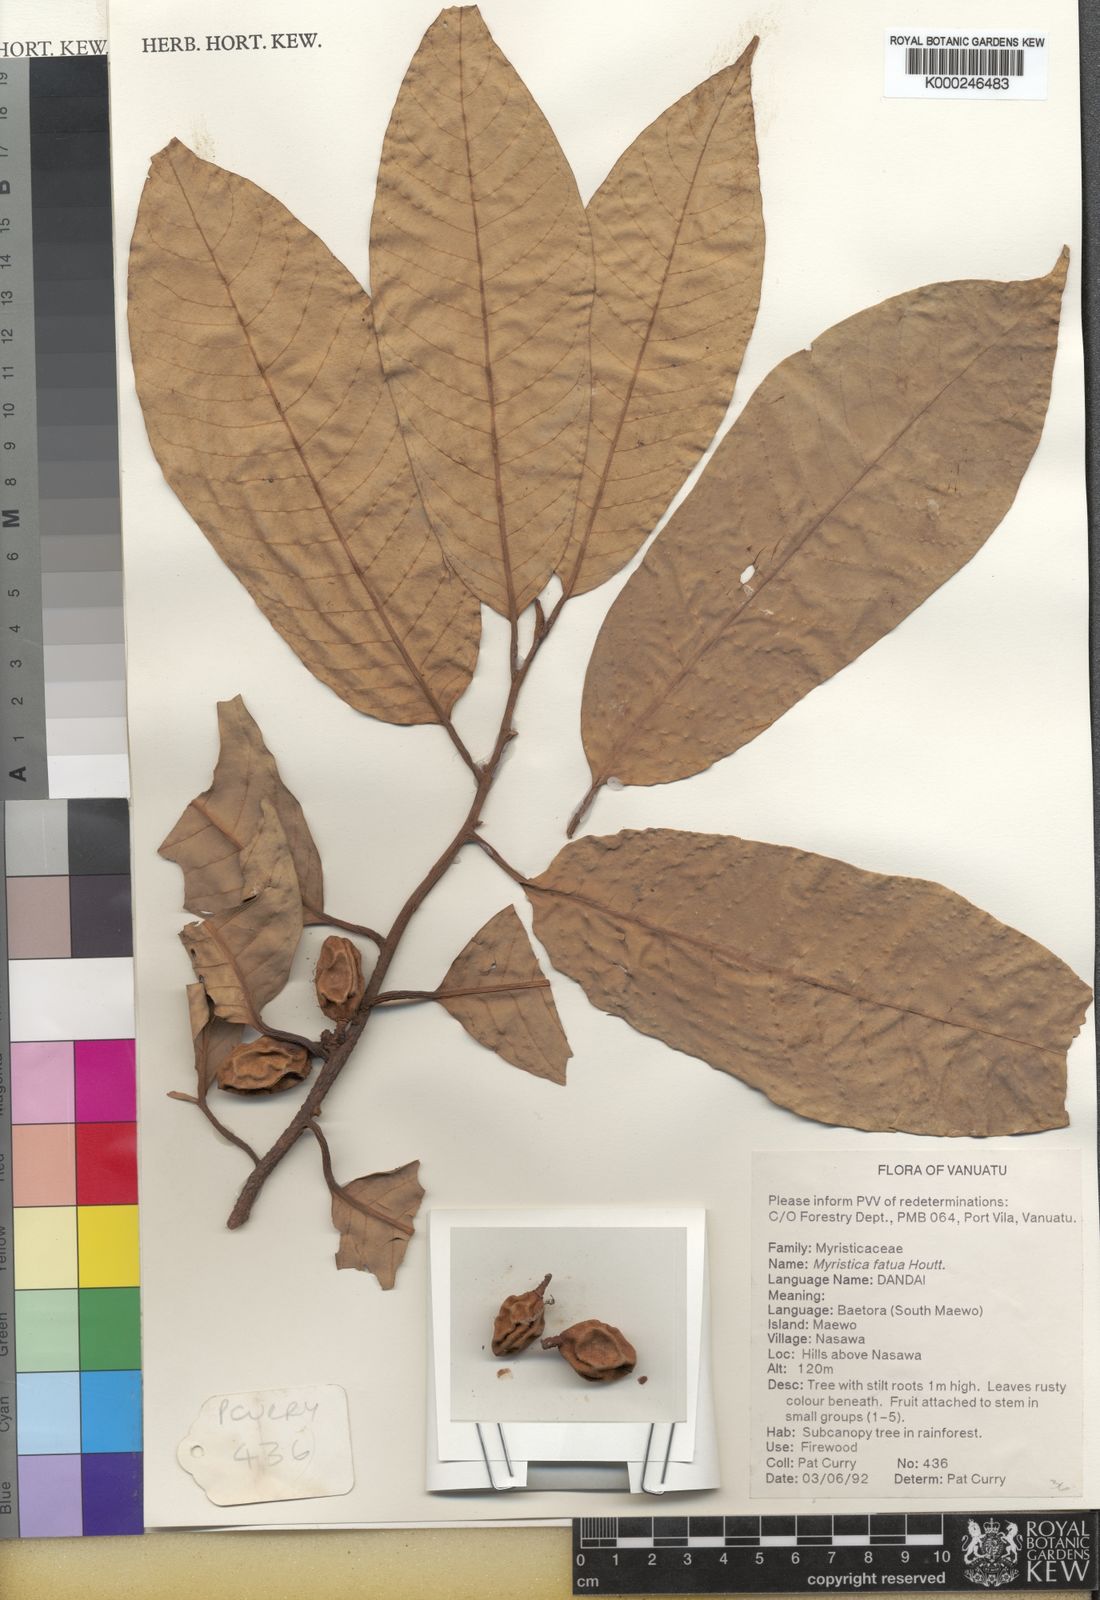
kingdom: Plantae
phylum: Tracheophyta
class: Magnoliopsida
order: Magnoliales
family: Myristicaceae
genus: Myristica
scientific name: Myristica fatua
